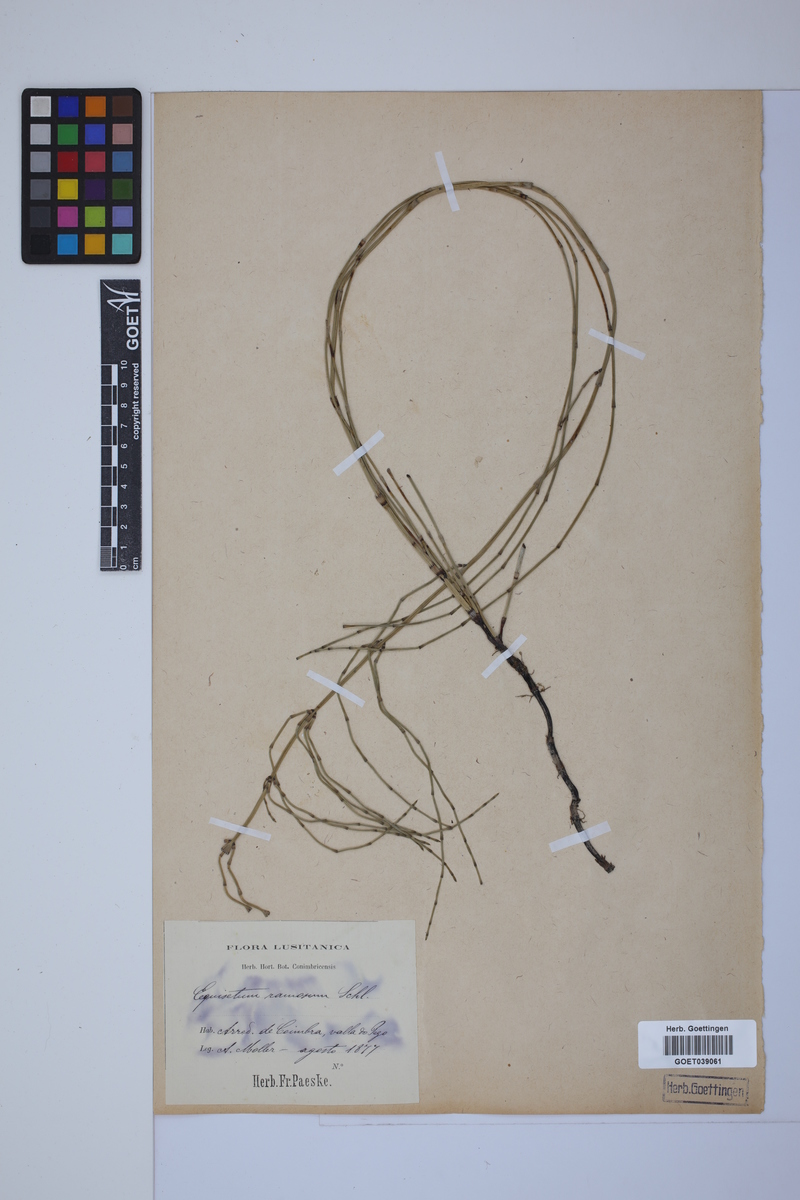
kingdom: Plantae
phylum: Tracheophyta
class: Polypodiopsida
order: Equisetales
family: Equisetaceae
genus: Equisetum
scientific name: Equisetum giganteum
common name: Giant horsetail
